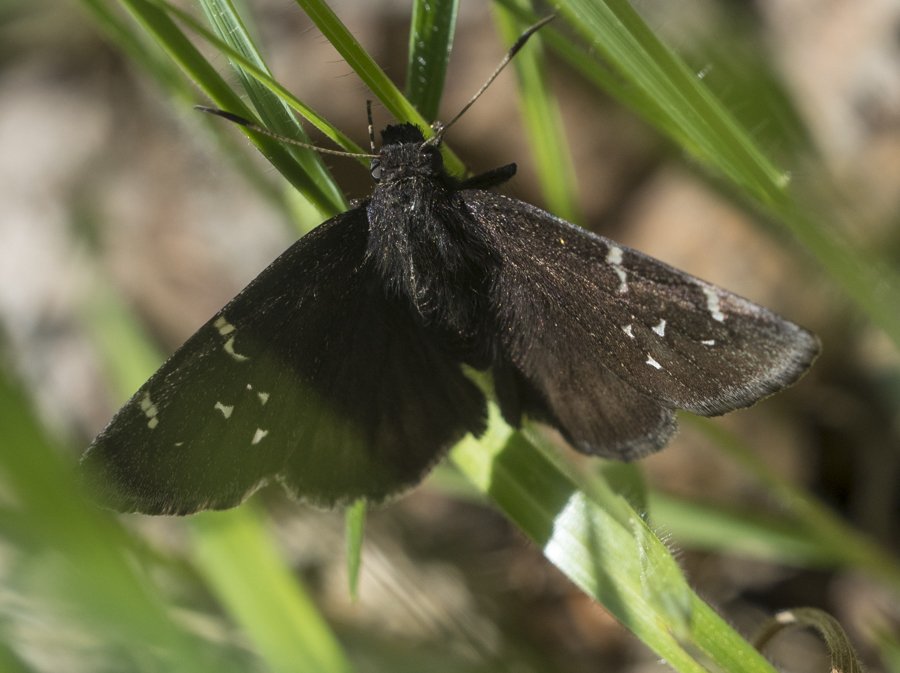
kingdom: Animalia
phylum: Arthropoda
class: Insecta
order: Lepidoptera
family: Hesperiidae
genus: Autochton
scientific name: Autochton
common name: Northern Cloudywing
